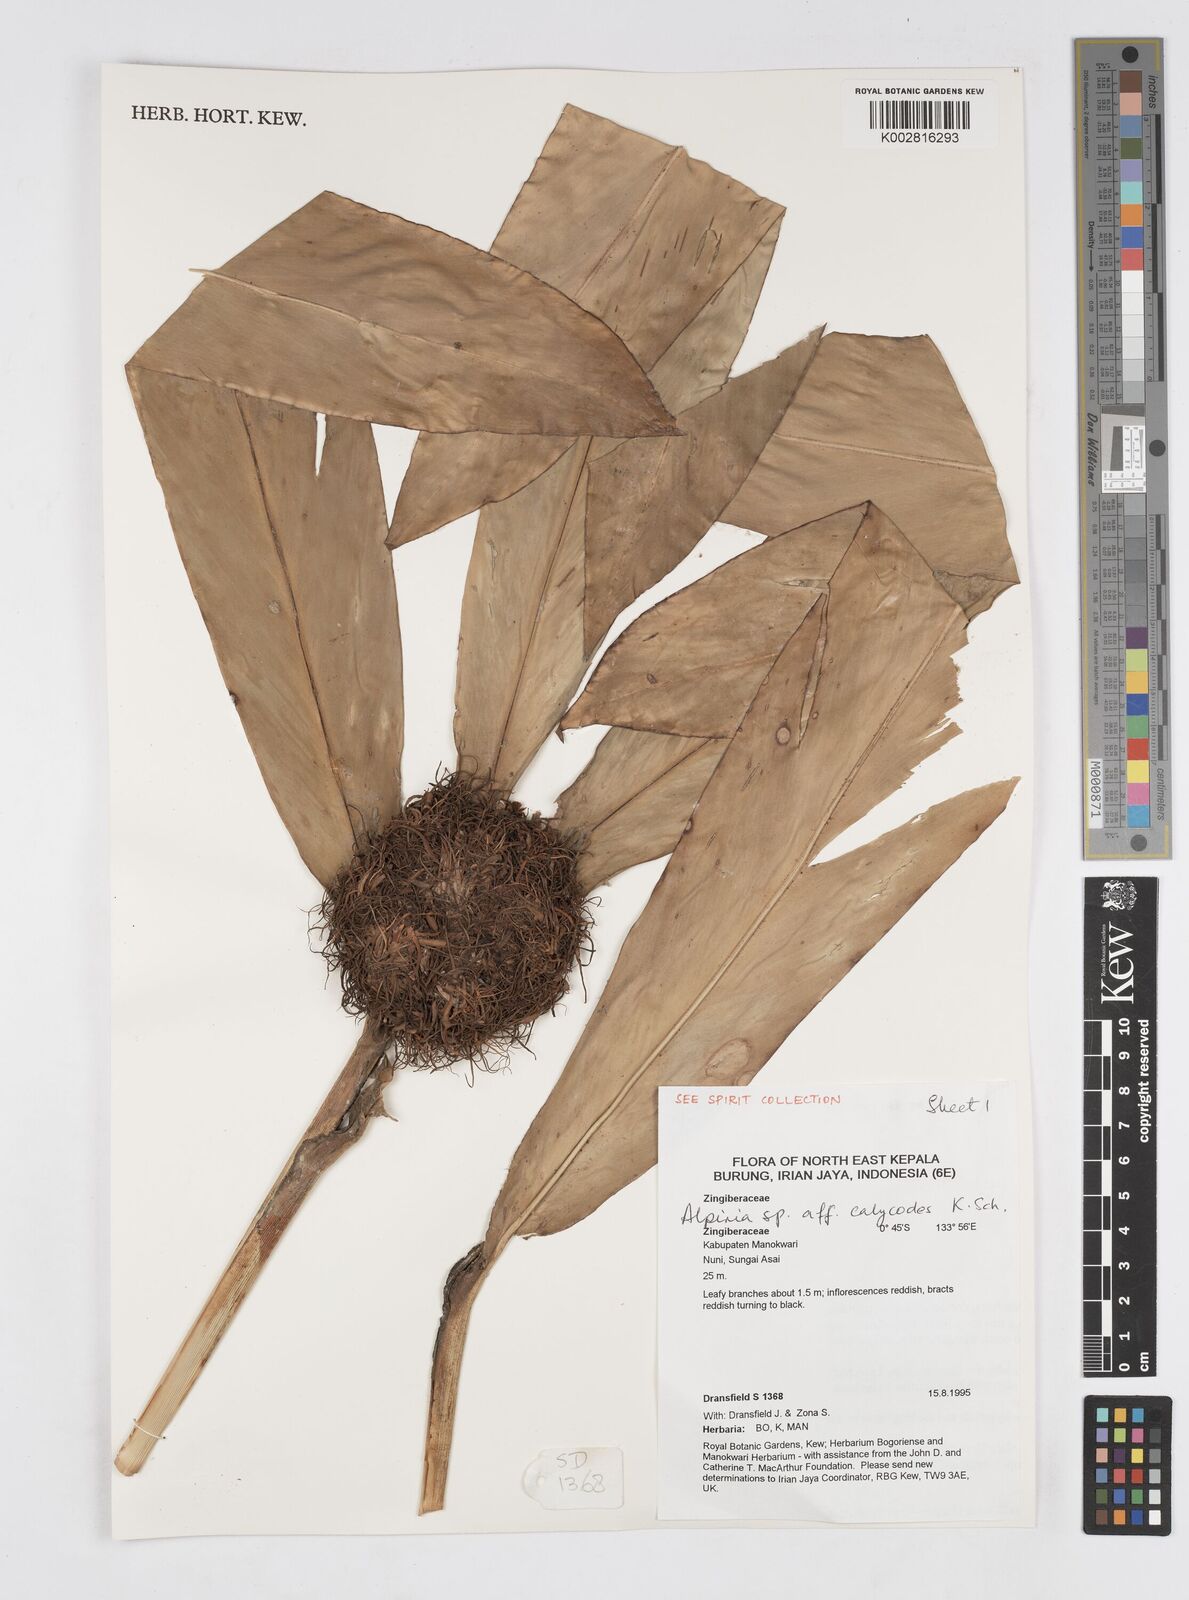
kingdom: Plantae
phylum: Tracheophyta
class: Liliopsida
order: Zingiberales
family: Zingiberaceae
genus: Alpinia
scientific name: Alpinia calycodes
